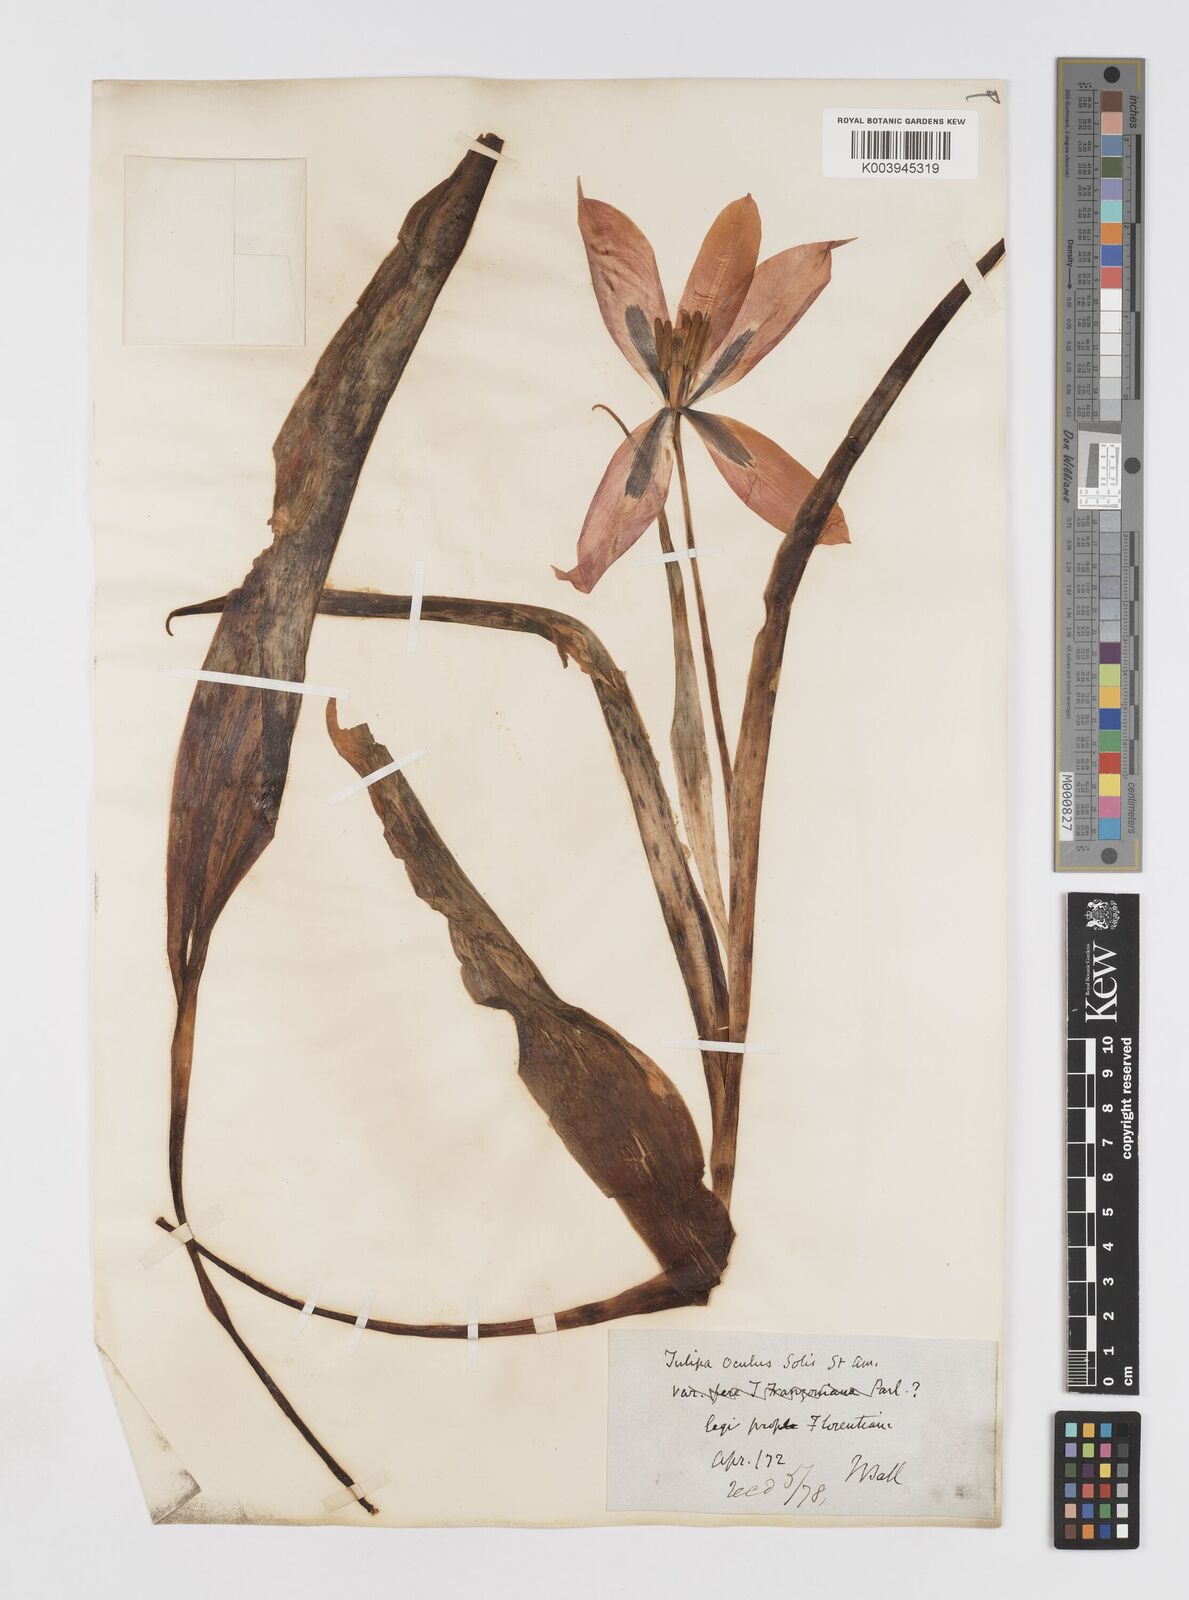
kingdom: Plantae
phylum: Tracheophyta
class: Liliopsida
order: Liliales
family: Liliaceae
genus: Tulipa
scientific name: Tulipa agenensis
